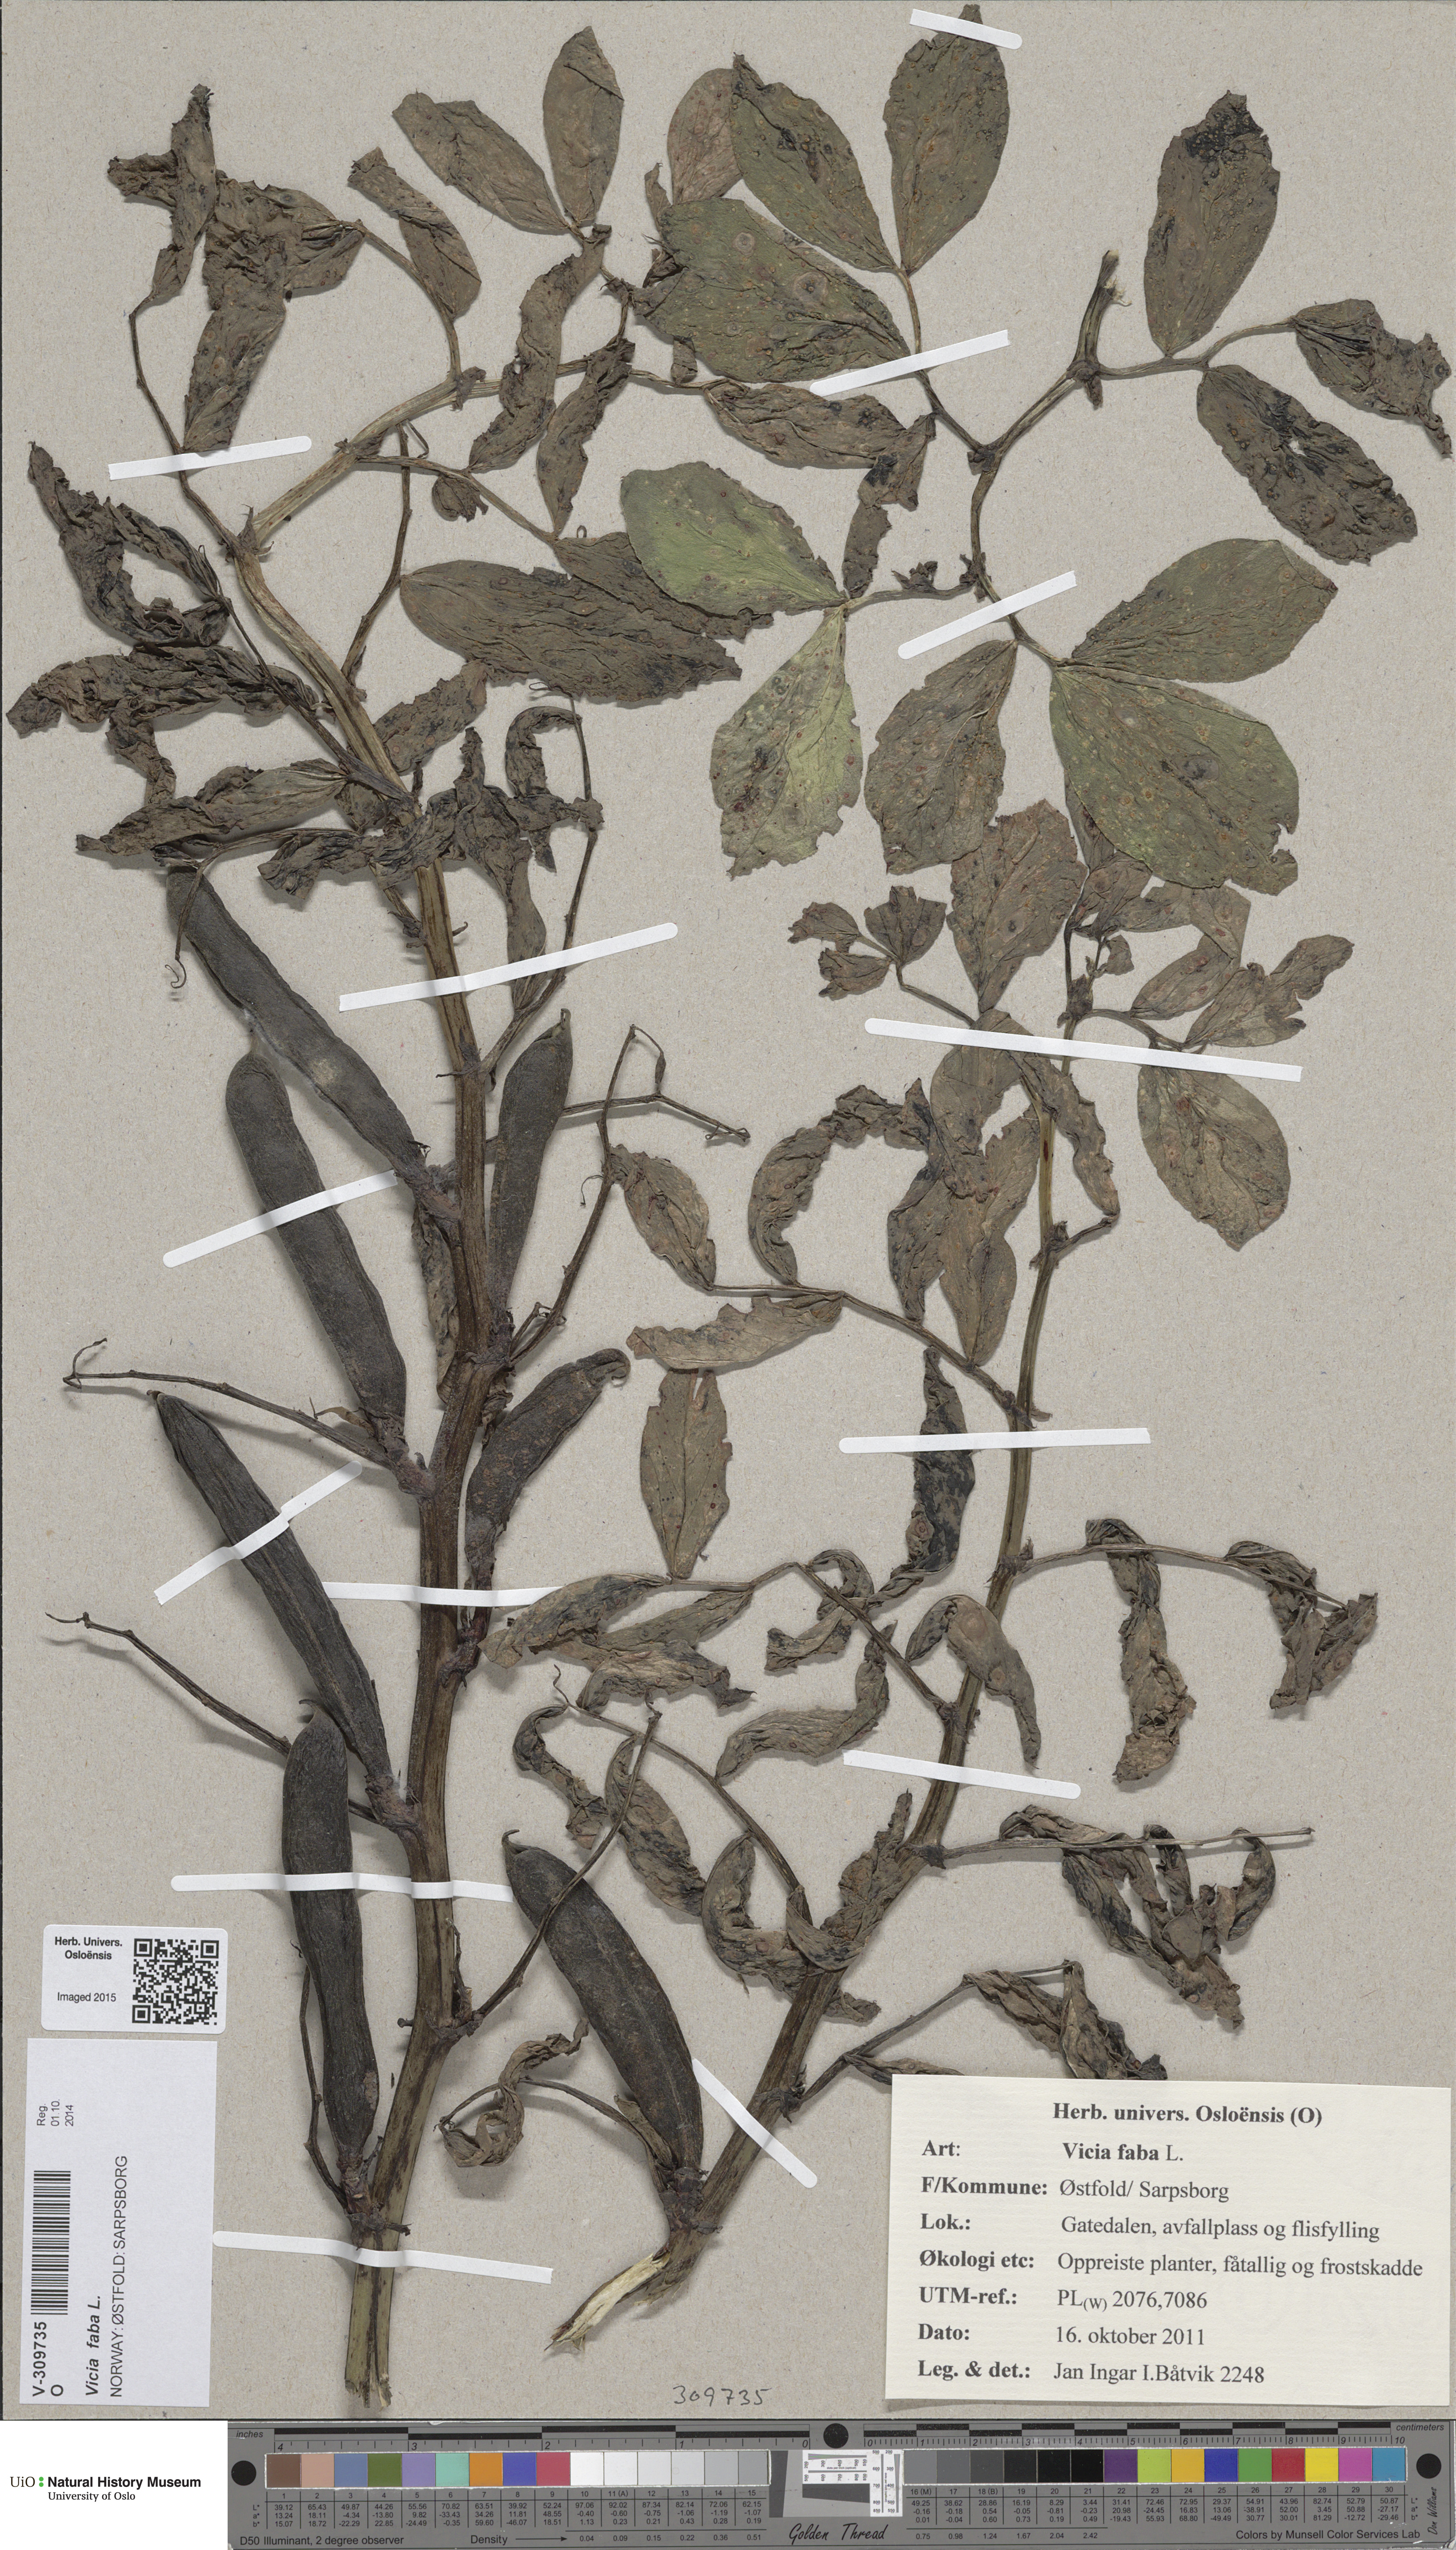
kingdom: Plantae
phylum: Tracheophyta
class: Magnoliopsida
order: Fabales
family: Fabaceae
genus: Vicia
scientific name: Vicia faba
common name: Broad bean
